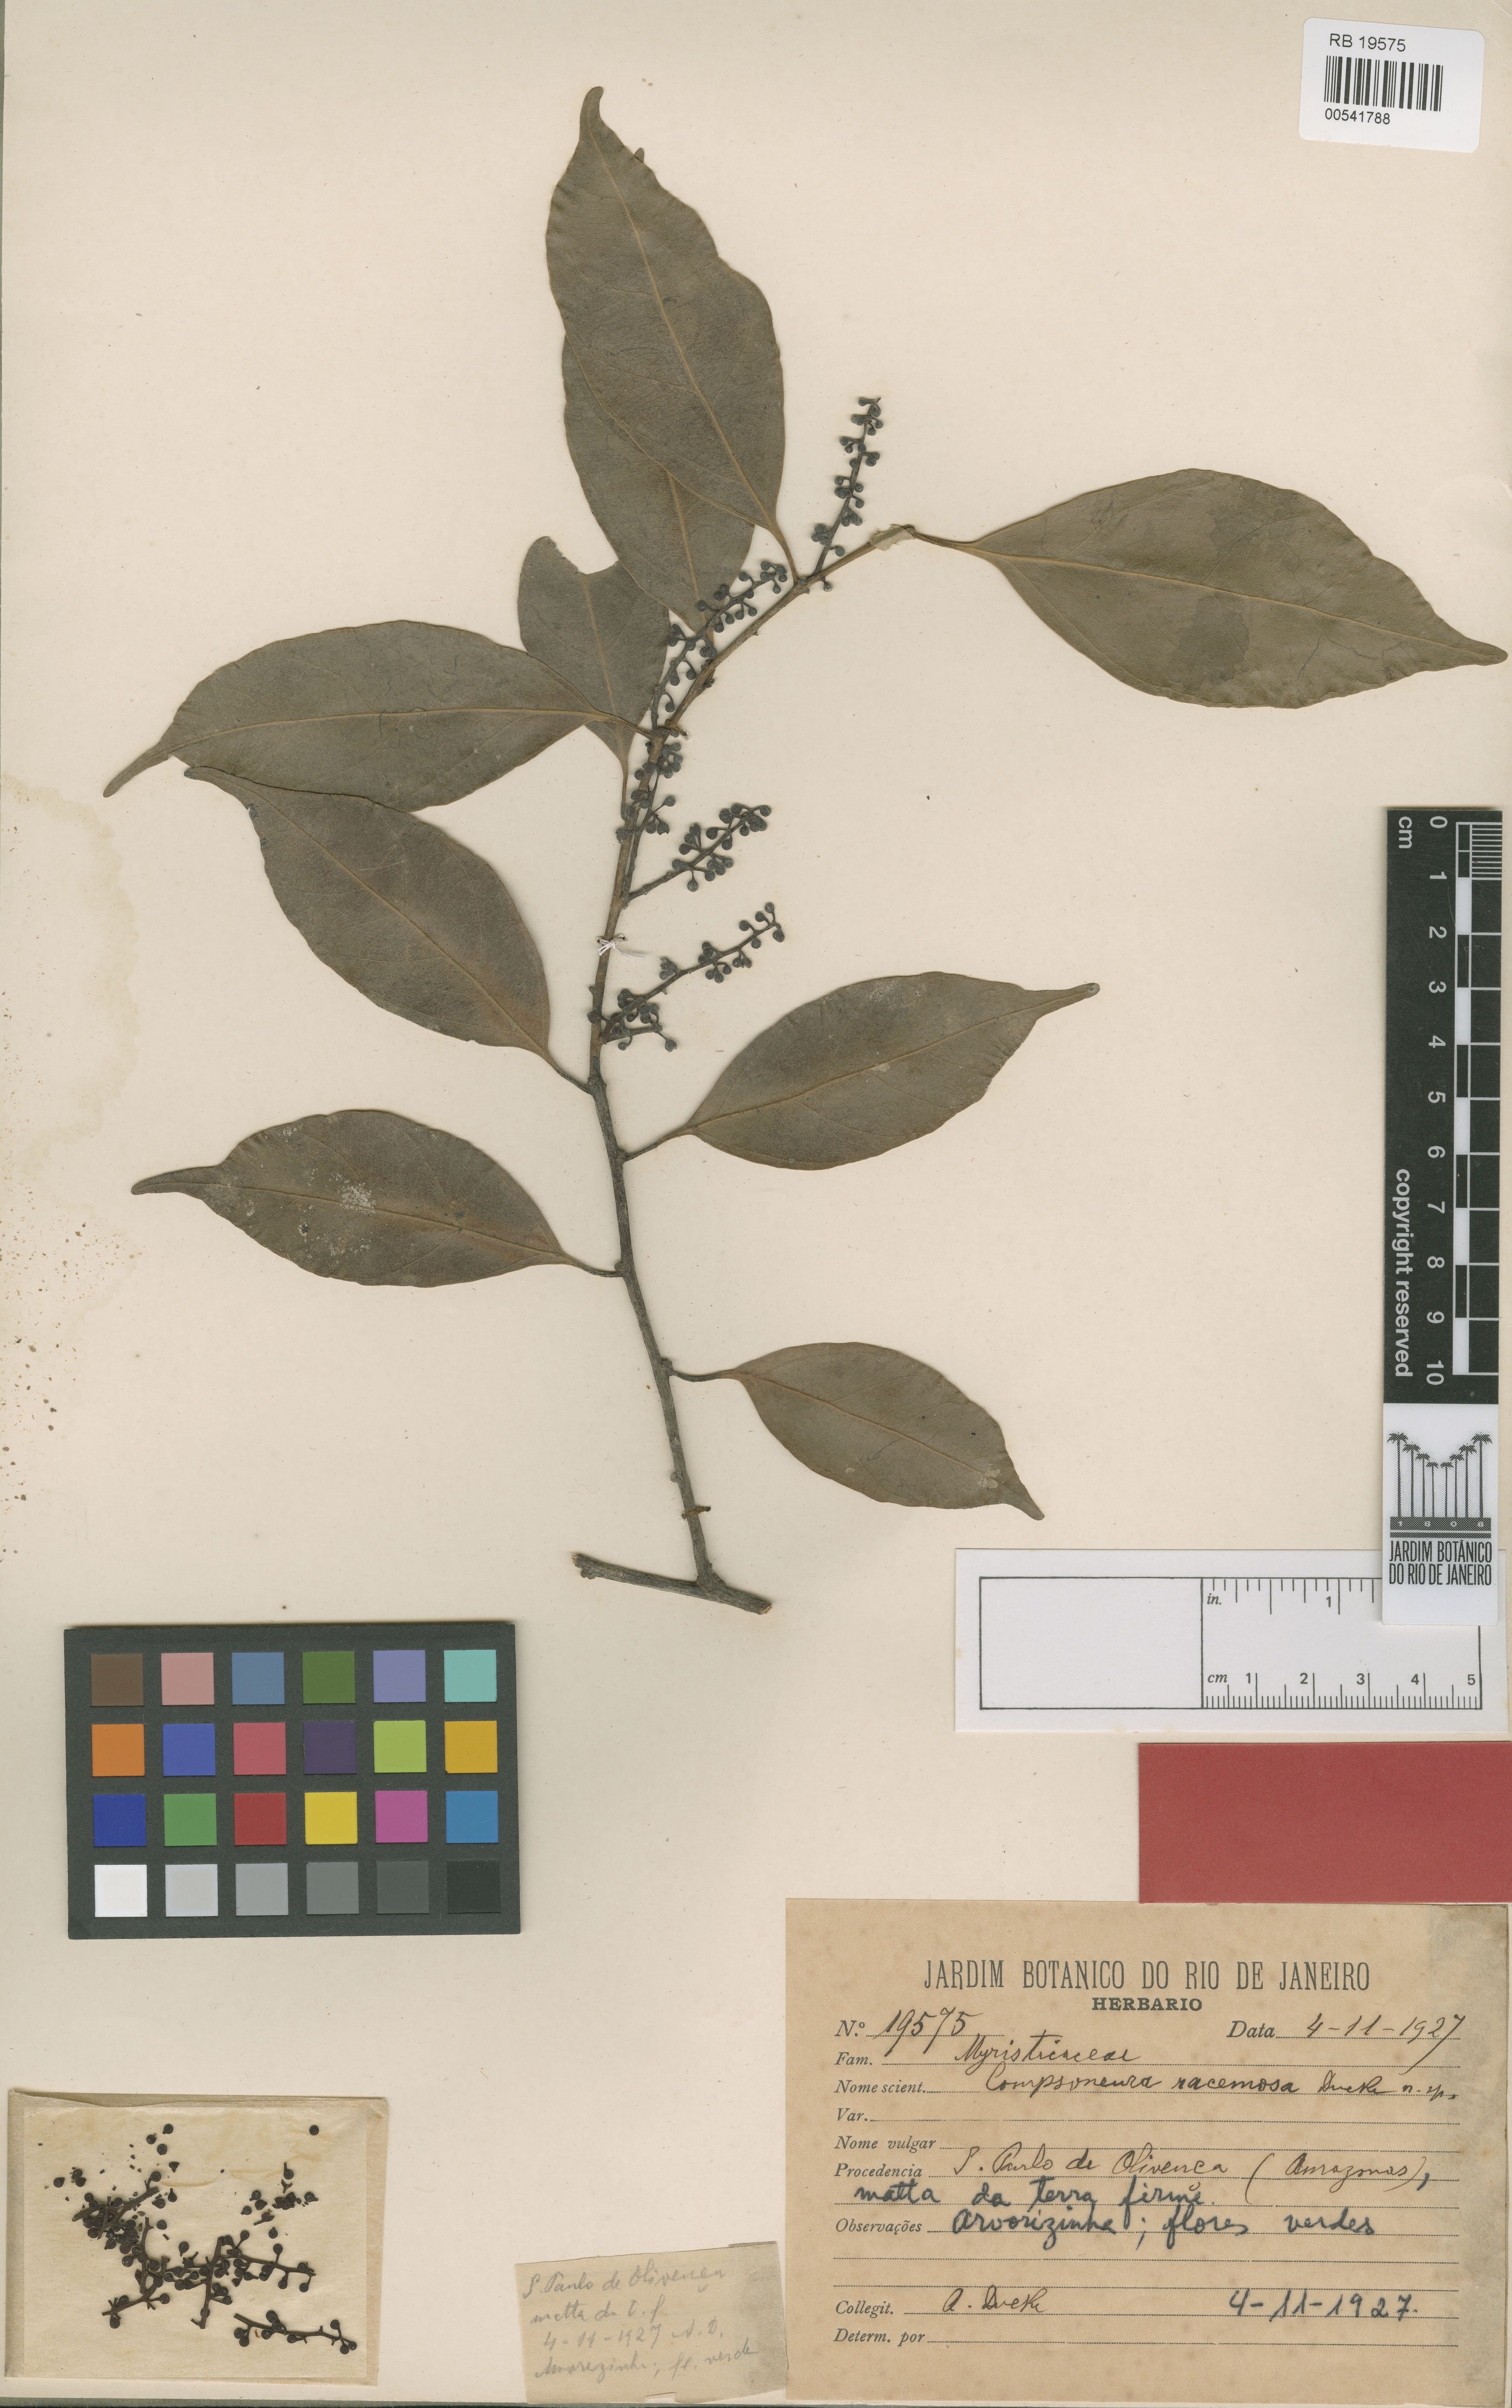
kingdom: Plantae
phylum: Tracheophyta
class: Magnoliopsida
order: Magnoliales
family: Myristicaceae
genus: Compsoneura
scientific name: Compsoneura racemosa
